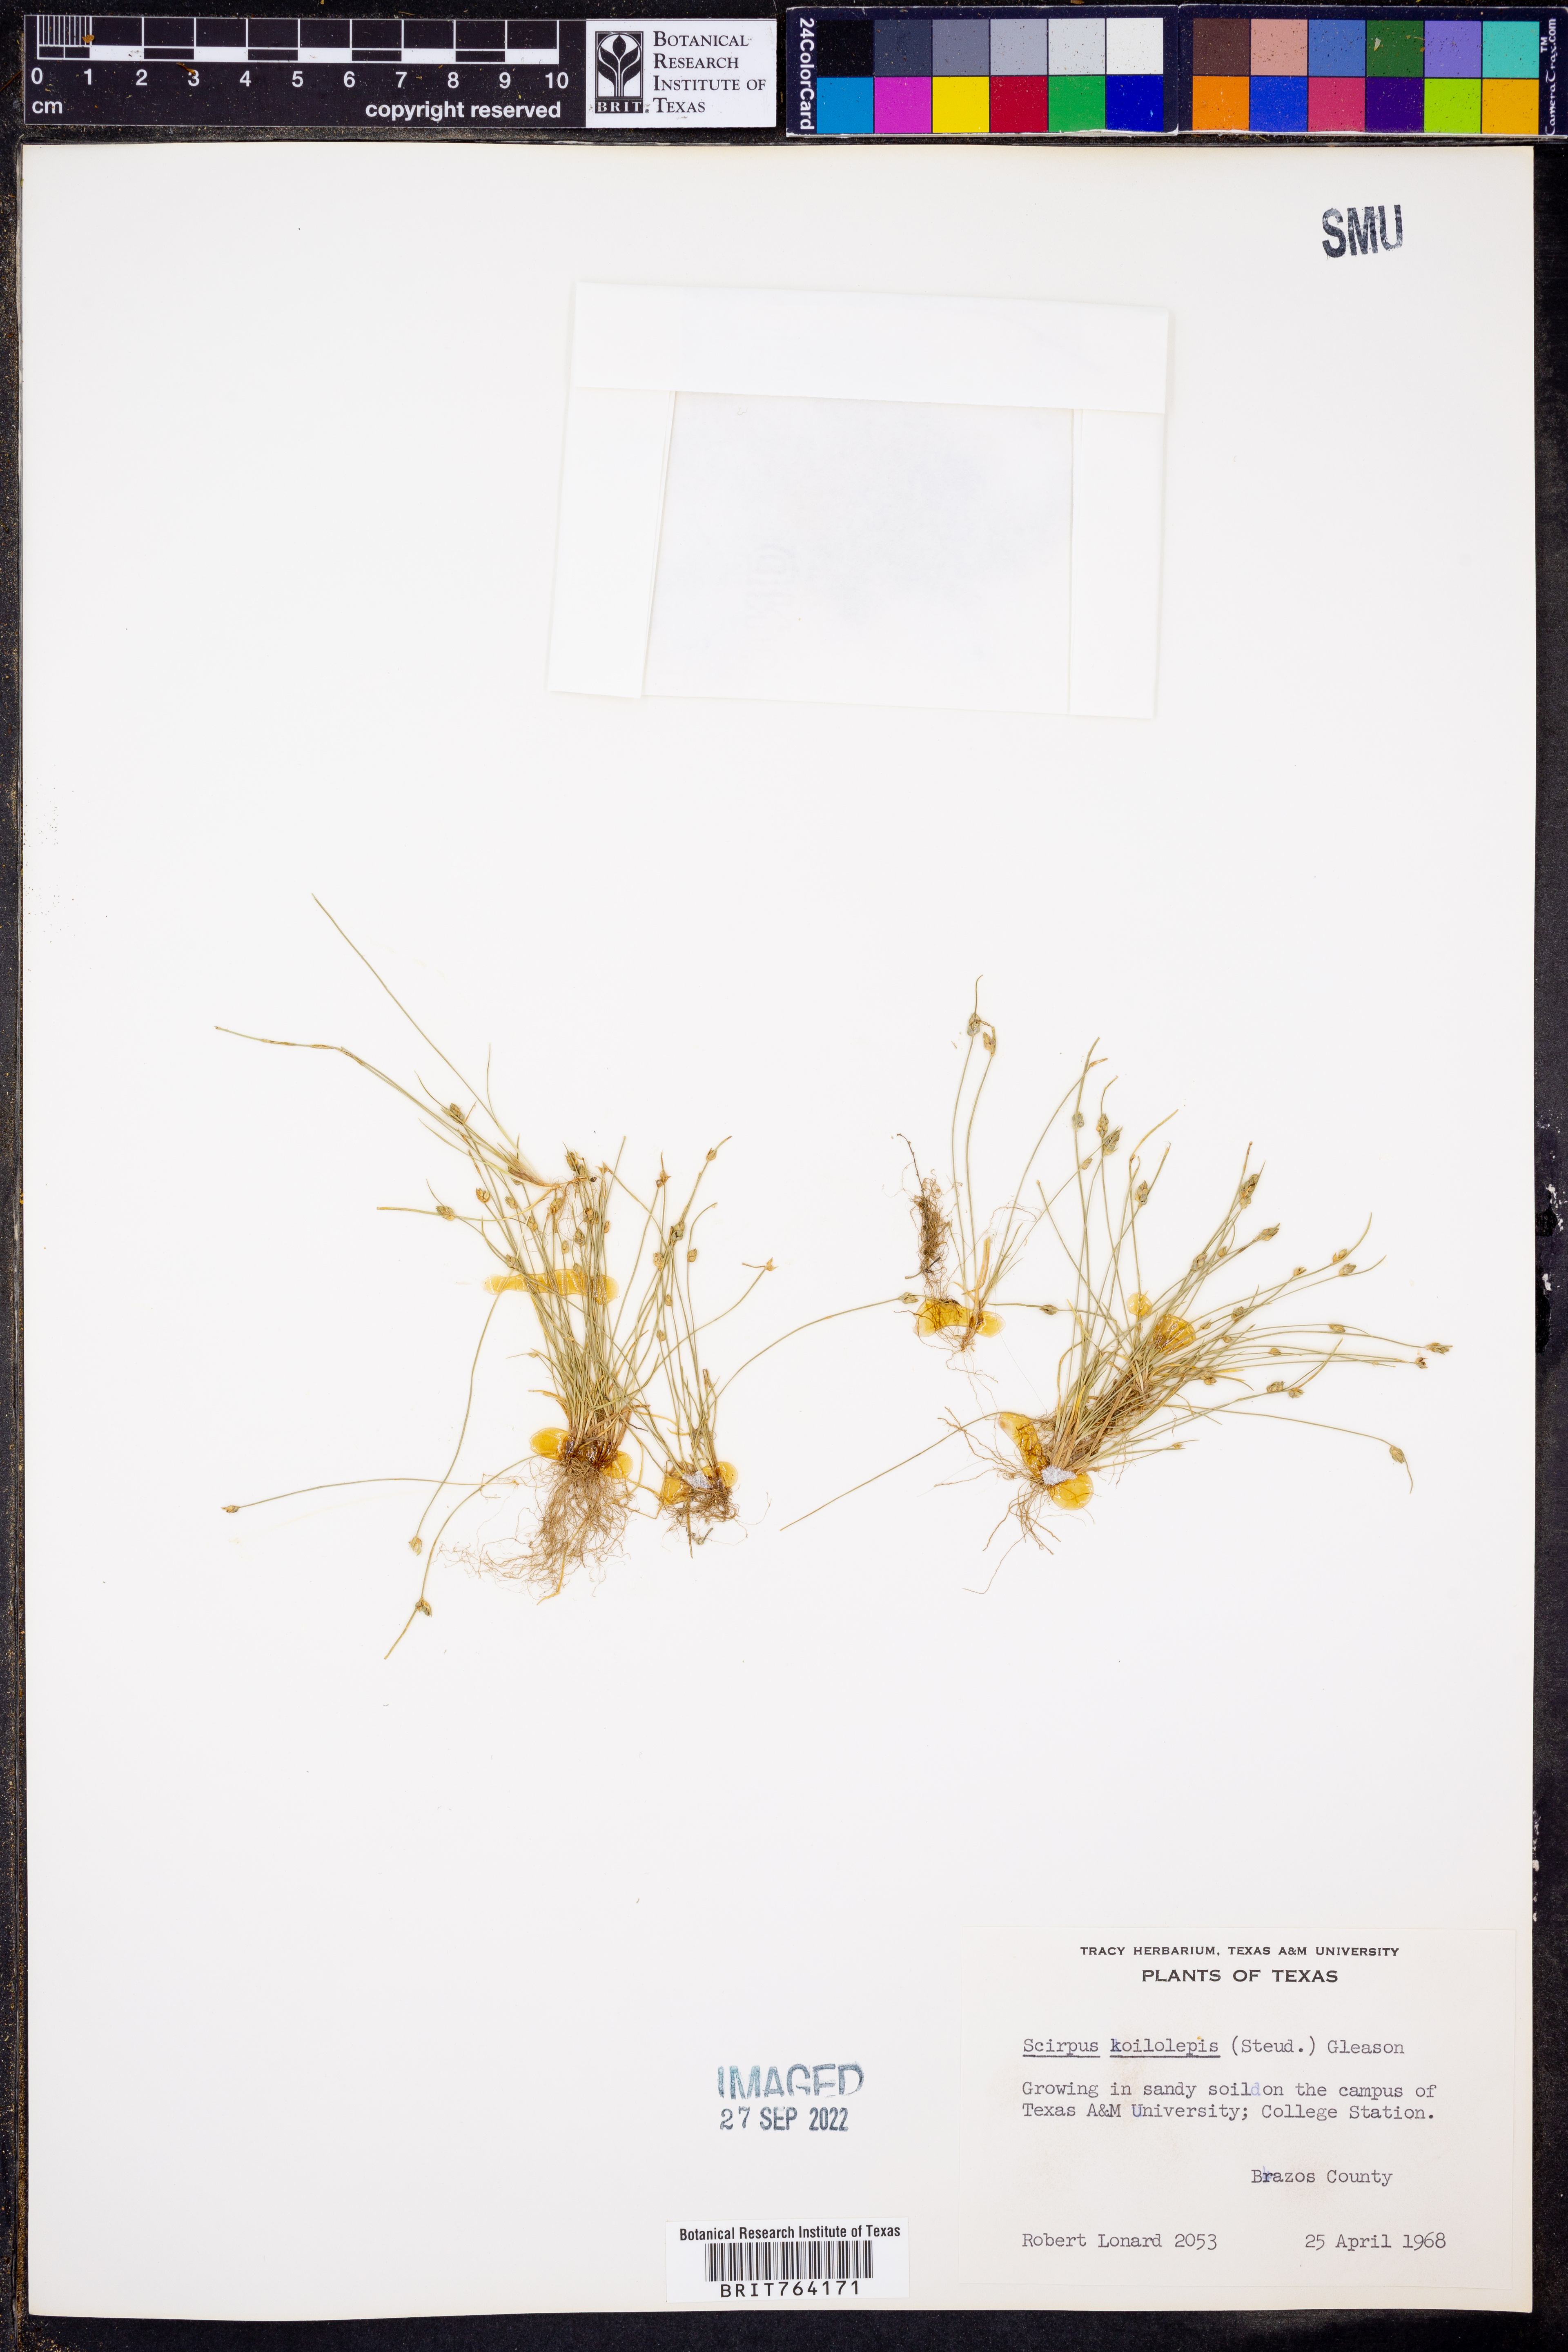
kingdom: Plantae
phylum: Tracheophyta
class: Liliopsida
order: Poales
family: Cyperaceae
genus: Isolepis
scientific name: Isolepis carinata
